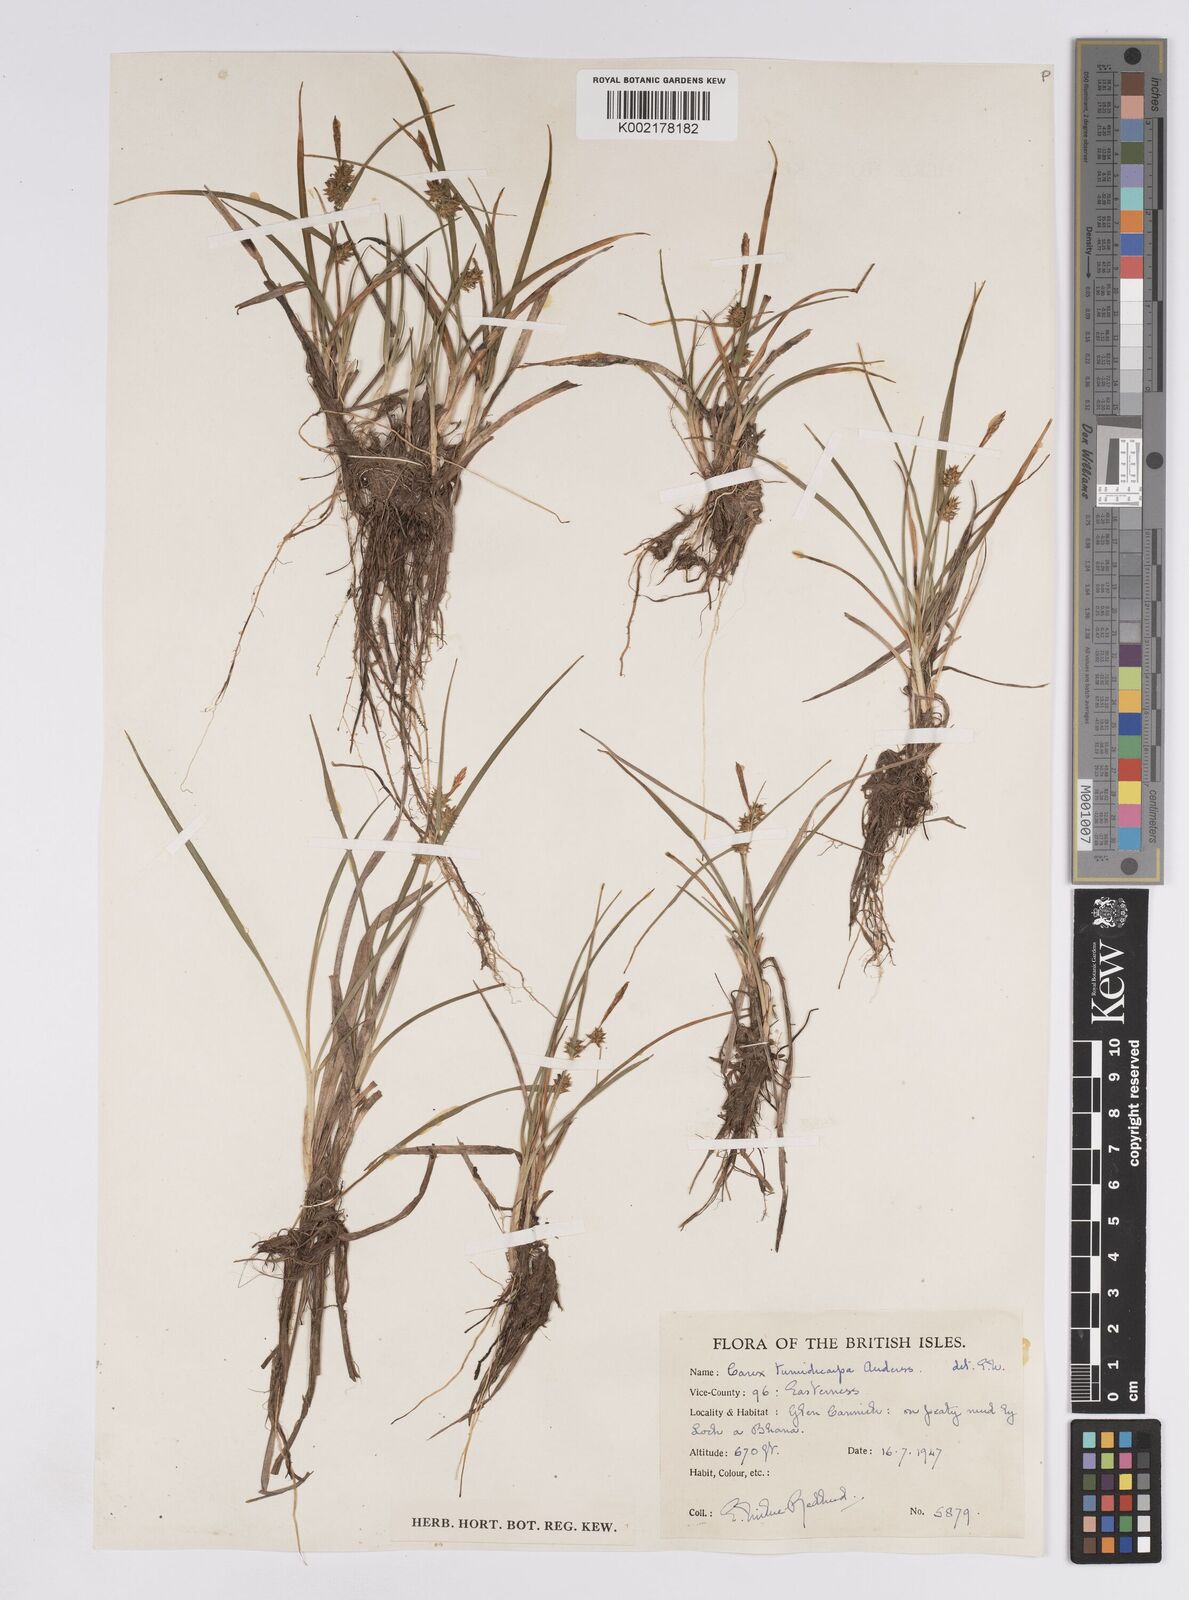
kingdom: Plantae
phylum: Tracheophyta
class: Liliopsida
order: Poales
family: Cyperaceae
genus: Carex
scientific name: Carex demissa
